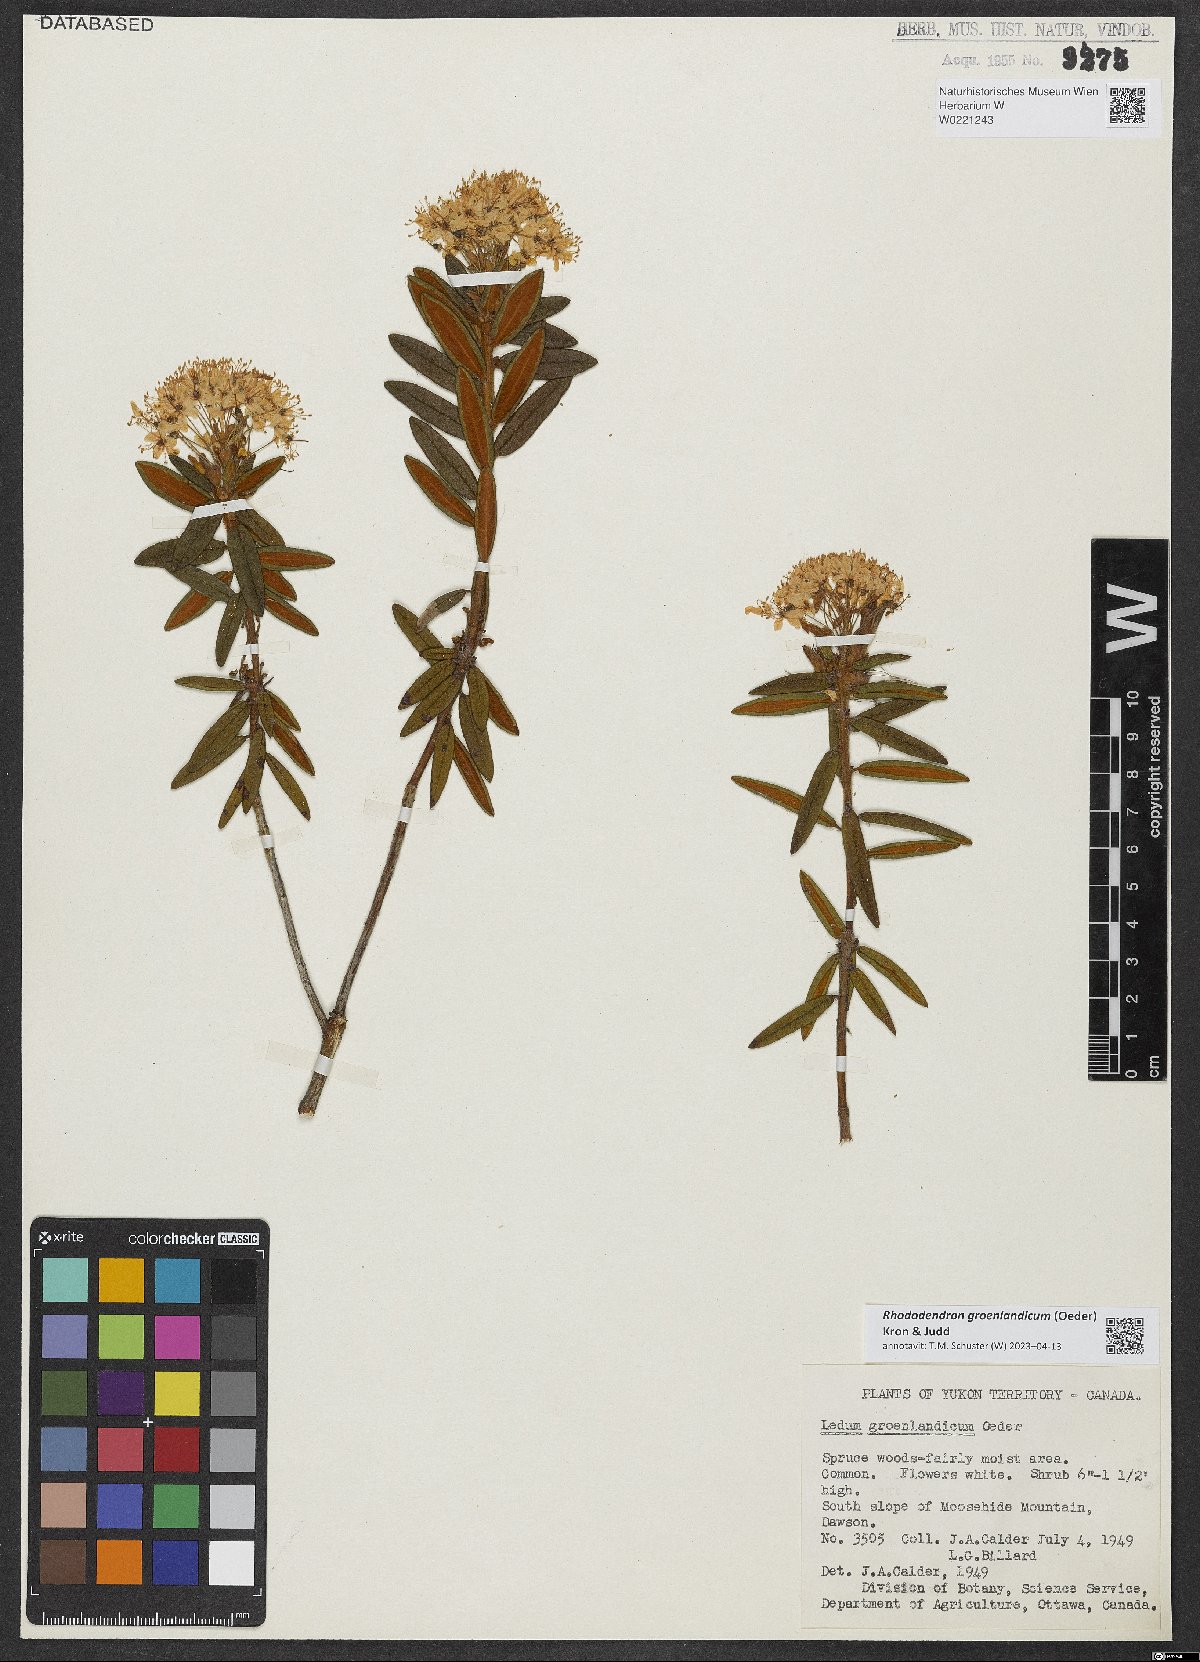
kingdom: Plantae
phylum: Tracheophyta
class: Magnoliopsida
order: Ericales
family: Ericaceae
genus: Rhododendron
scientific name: Rhododendron groenlandicum
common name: Bog labrador tea
